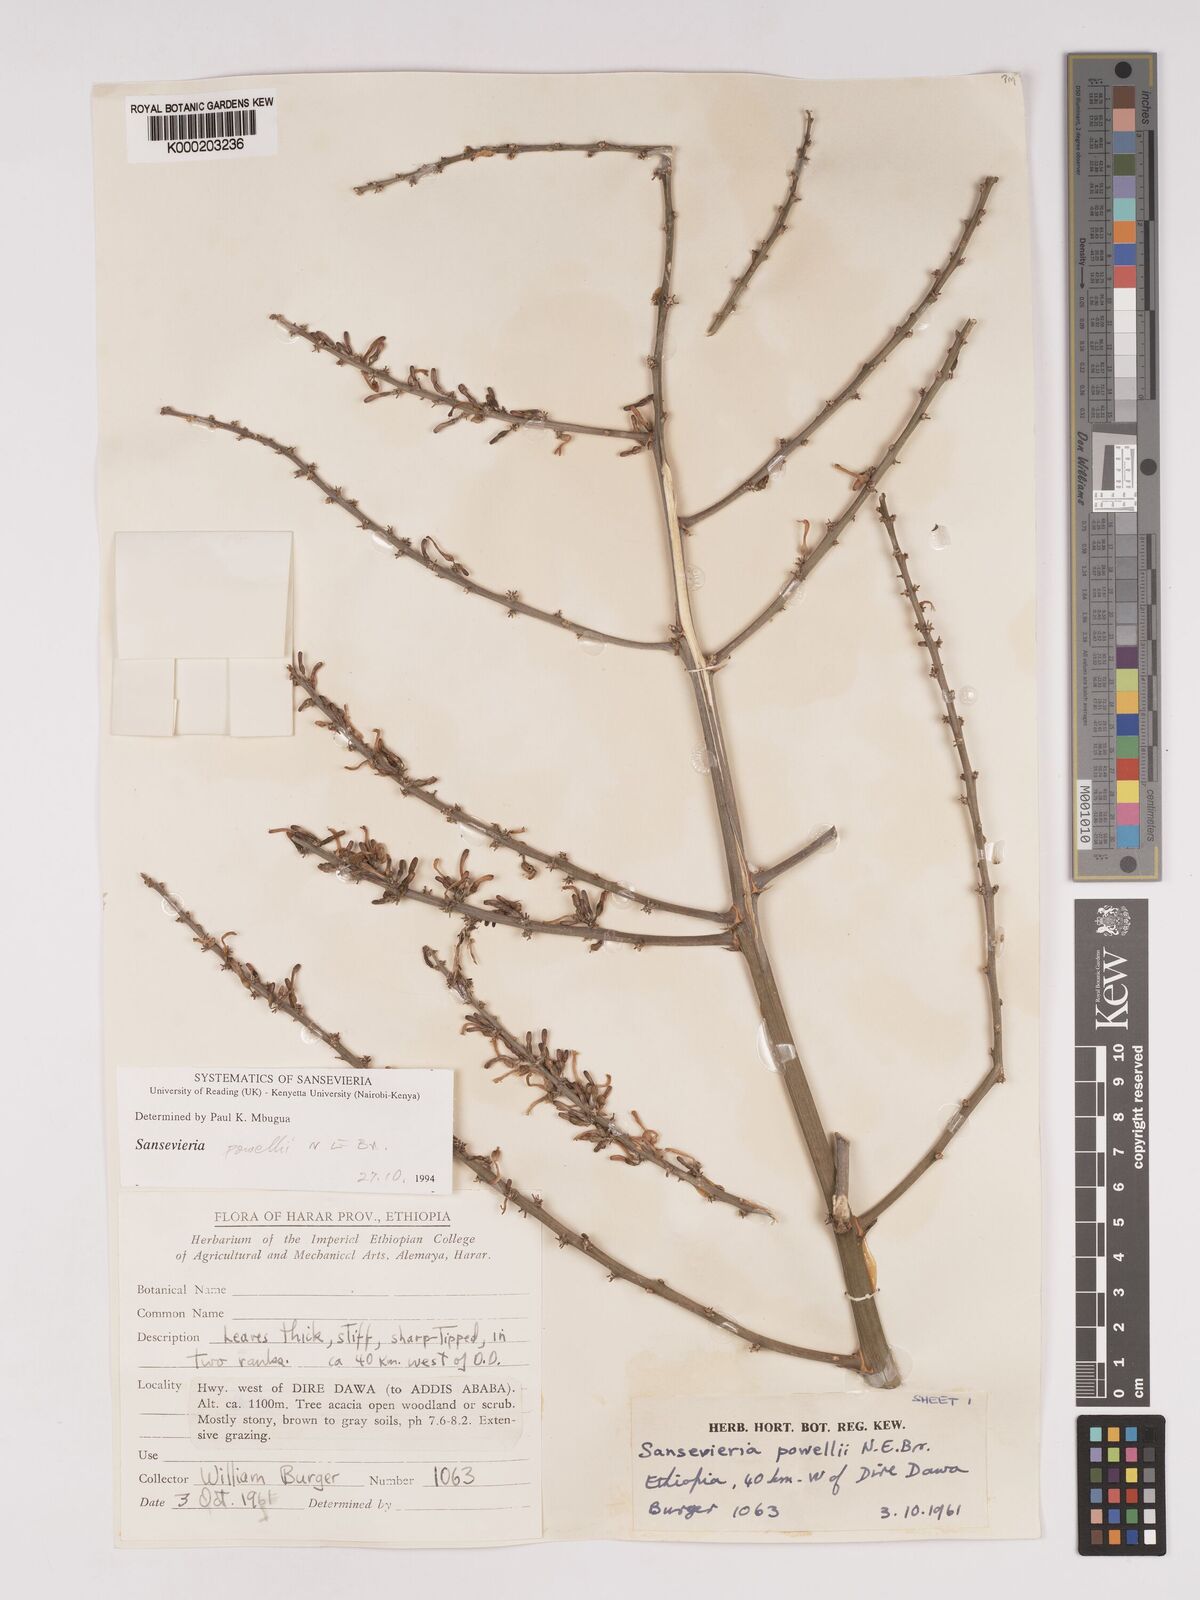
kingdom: Plantae
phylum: Tracheophyta
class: Liliopsida
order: Asparagales
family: Asparagaceae
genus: Dracaena
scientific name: Dracaena powellii
